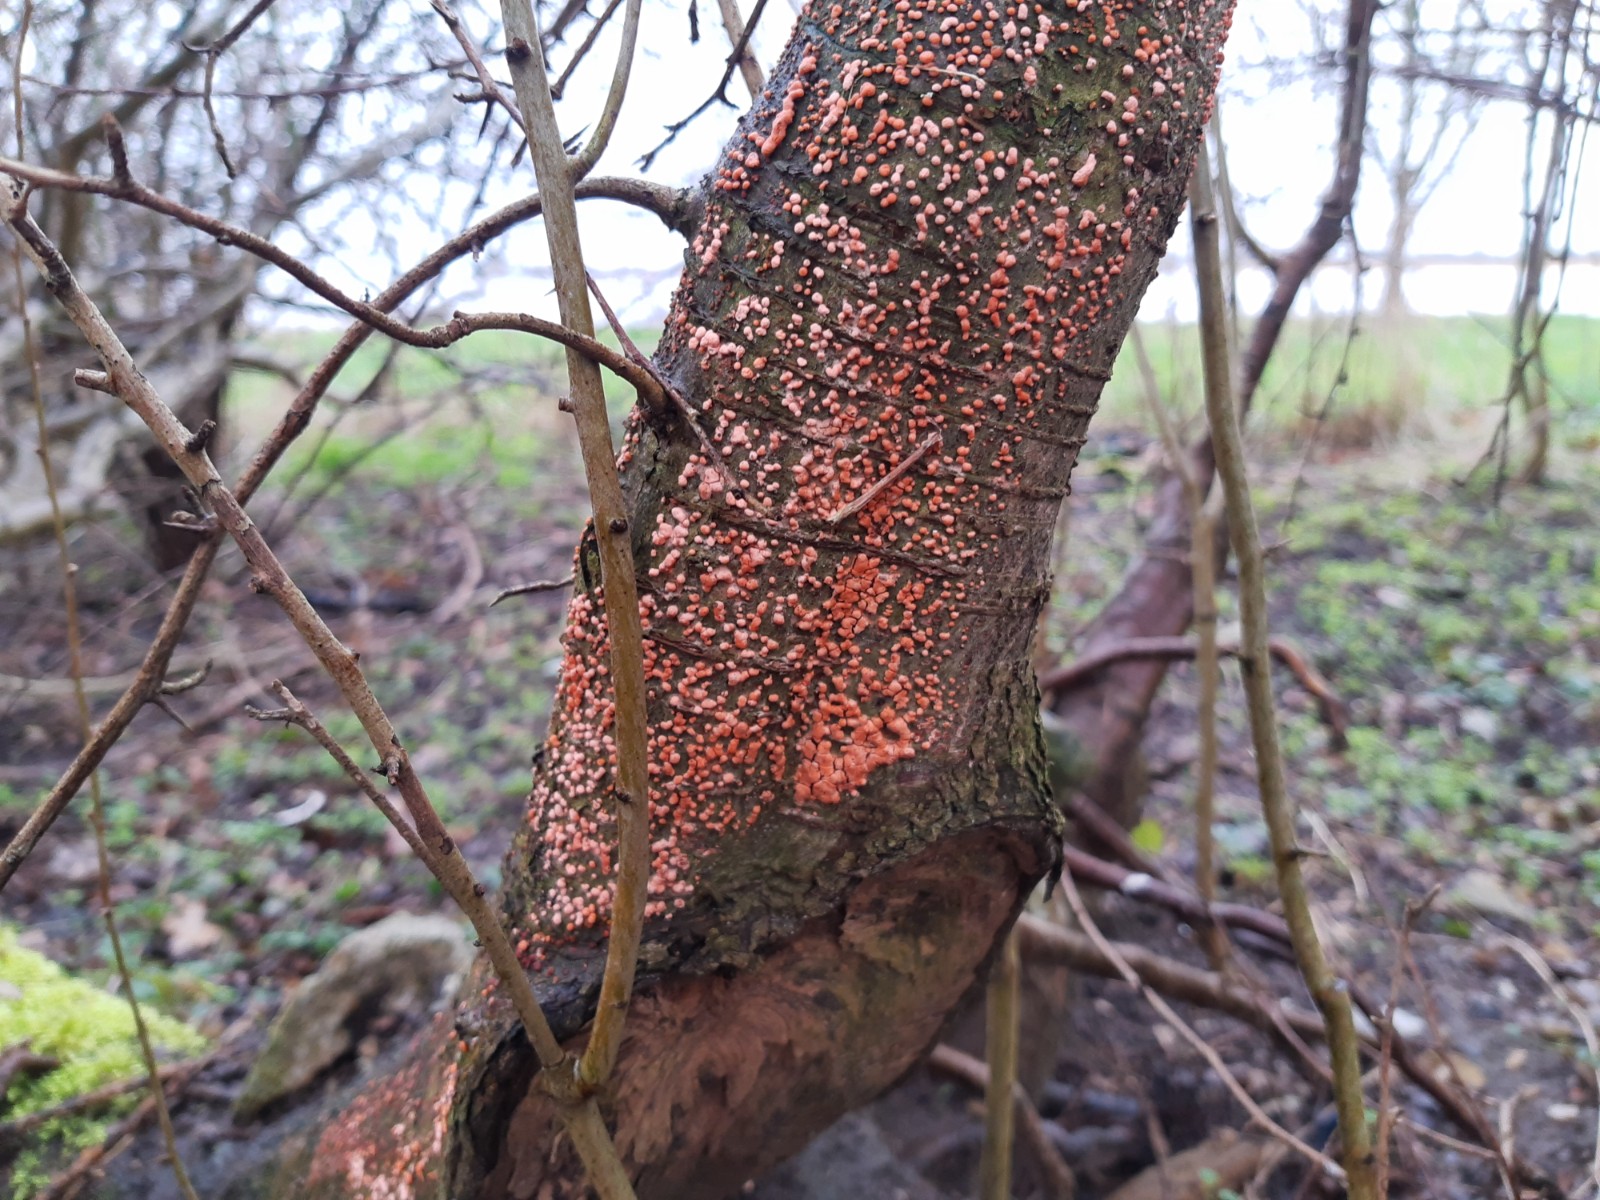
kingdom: Fungi
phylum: Ascomycota
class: Sordariomycetes
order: Hypocreales
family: Nectriaceae
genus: Nectria
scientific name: Nectria cinnabarina
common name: almindelig cinnobersvamp
